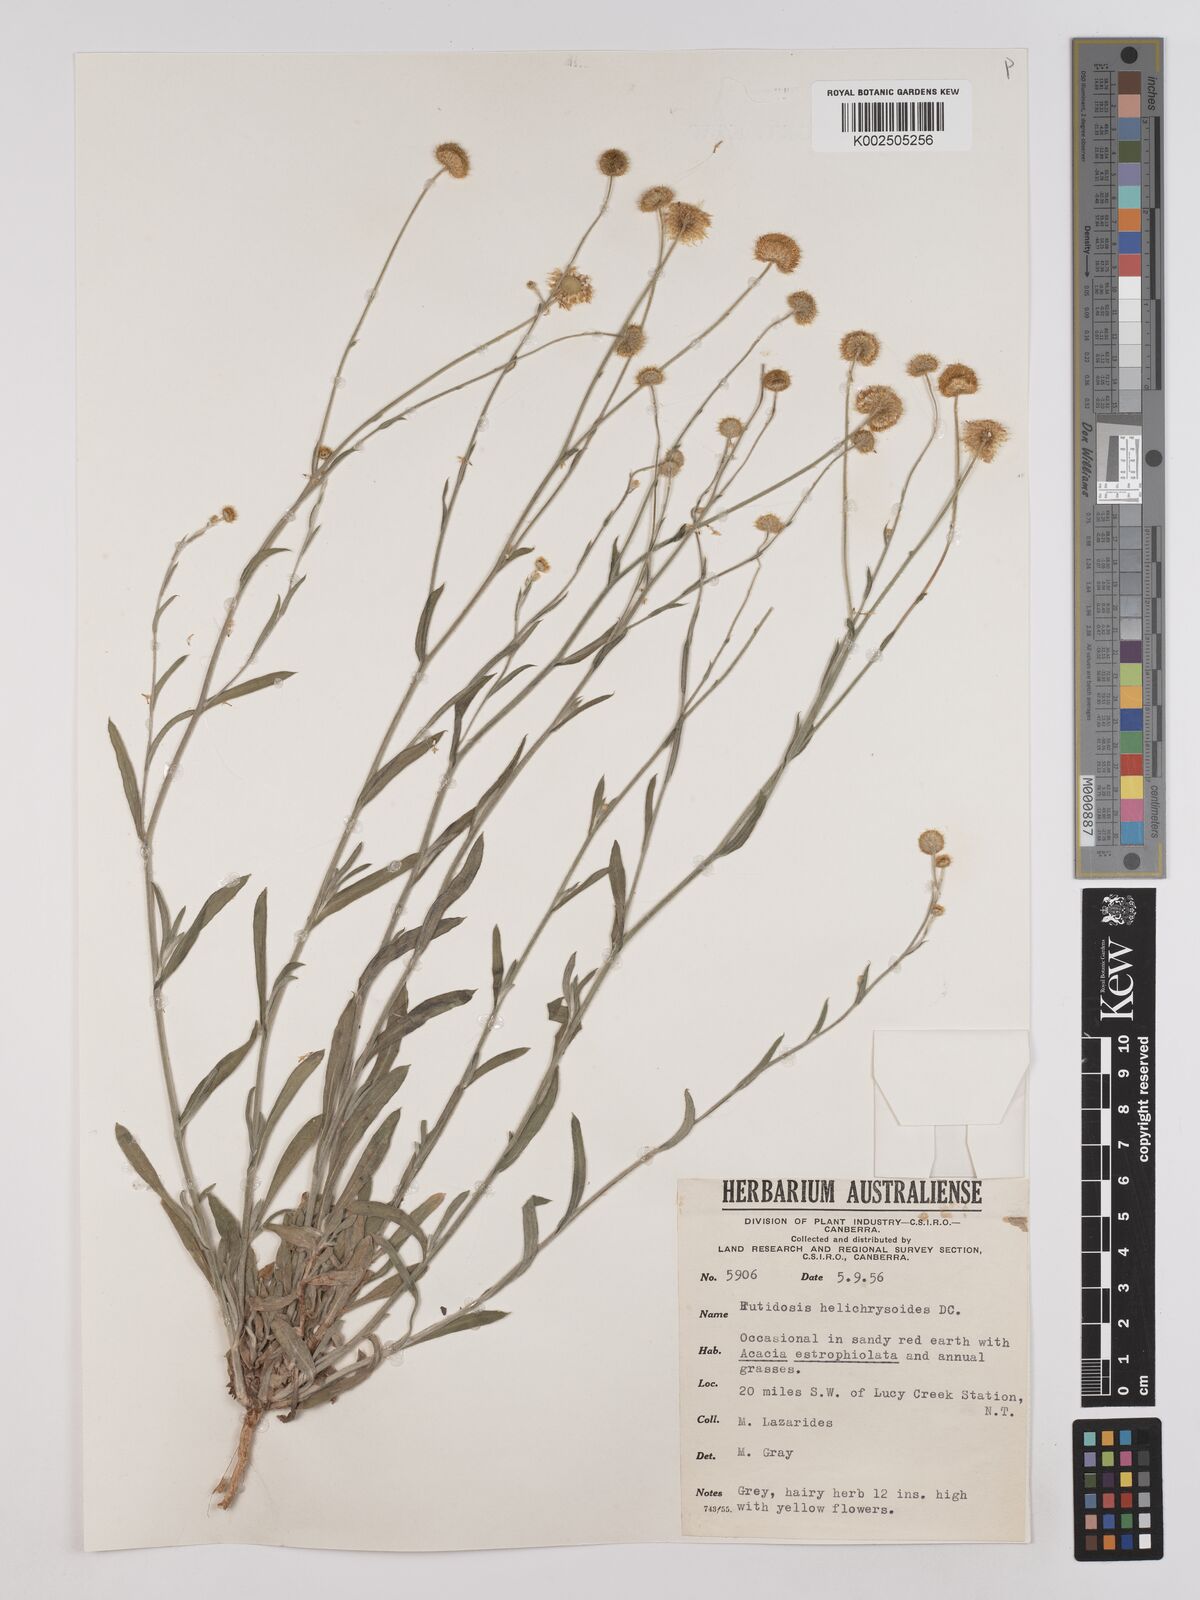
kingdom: Plantae
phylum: Tracheophyta
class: Magnoliopsida
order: Asterales
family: Asteraceae
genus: Rutidosis
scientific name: Rutidosis helichrysoides
